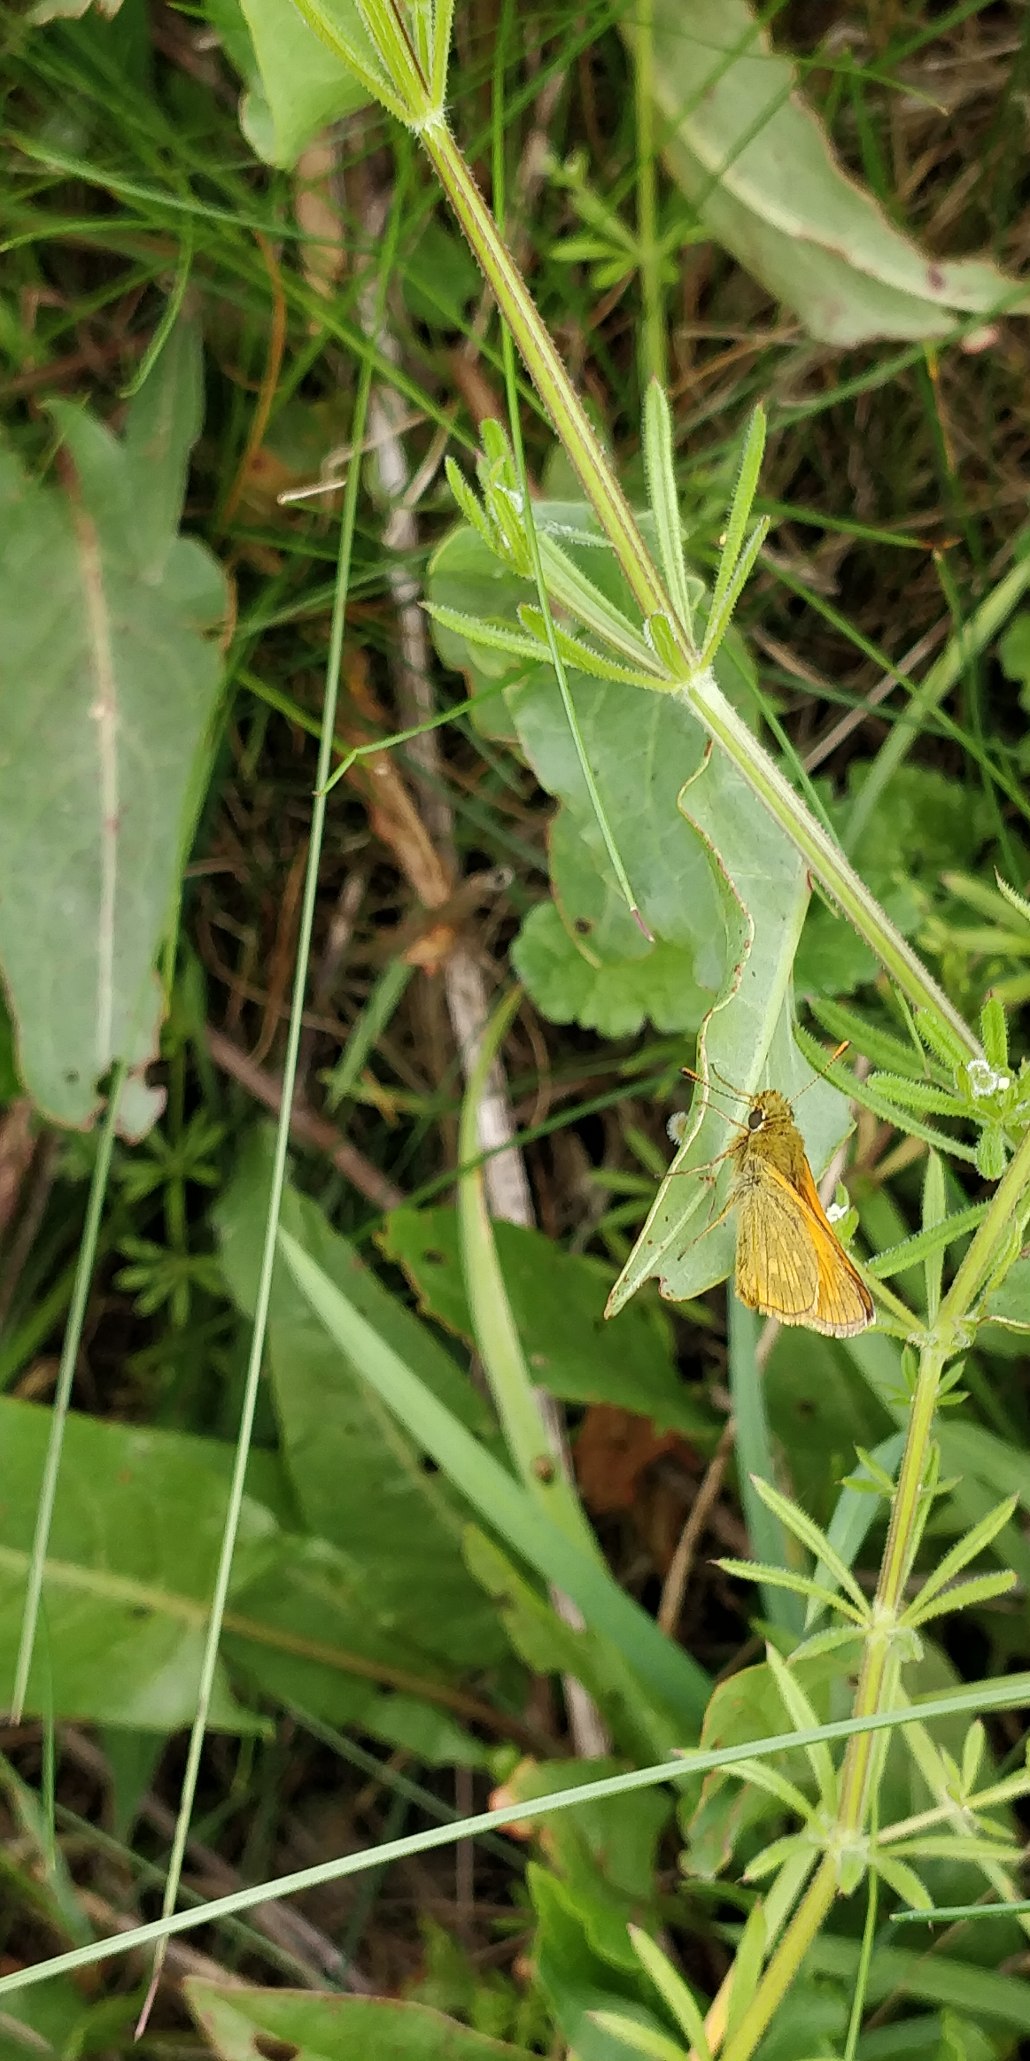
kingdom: Animalia
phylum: Arthropoda
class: Insecta
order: Lepidoptera
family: Hesperiidae
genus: Ochlodes
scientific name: Ochlodes venata
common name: Stor bredpande
